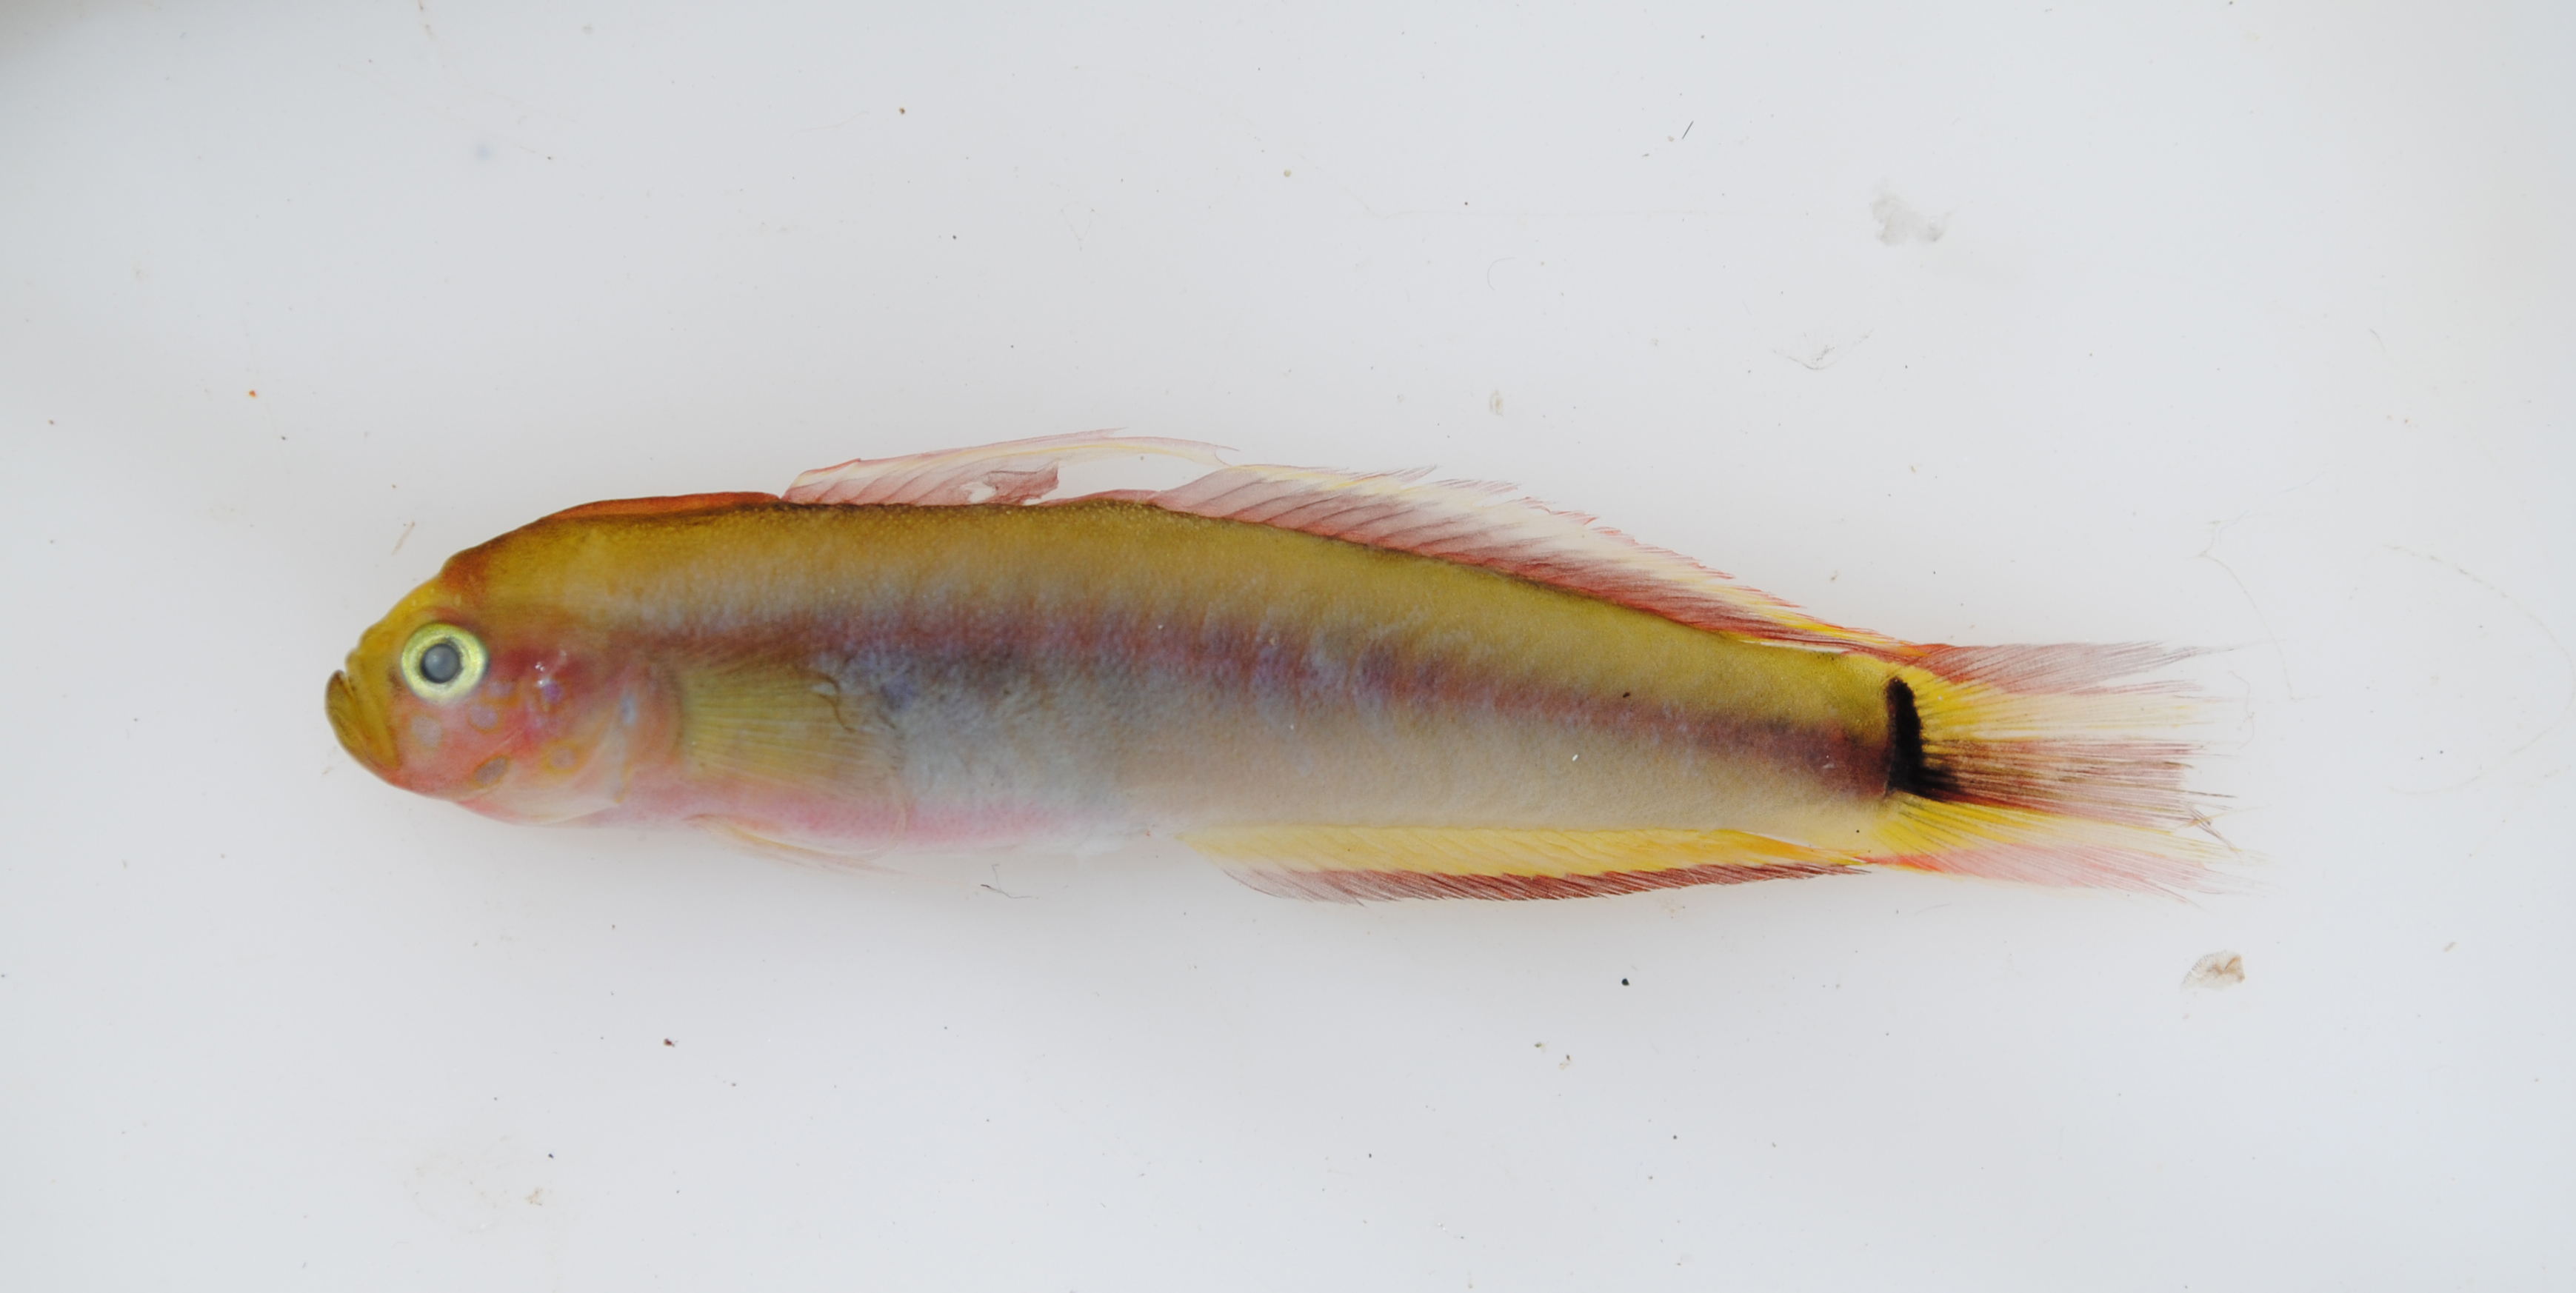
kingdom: Animalia
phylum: Chordata
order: Perciformes
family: Microdesmidae
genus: Parioglossus
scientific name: Parioglossus taeniatus
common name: Taeniatus dartfish
